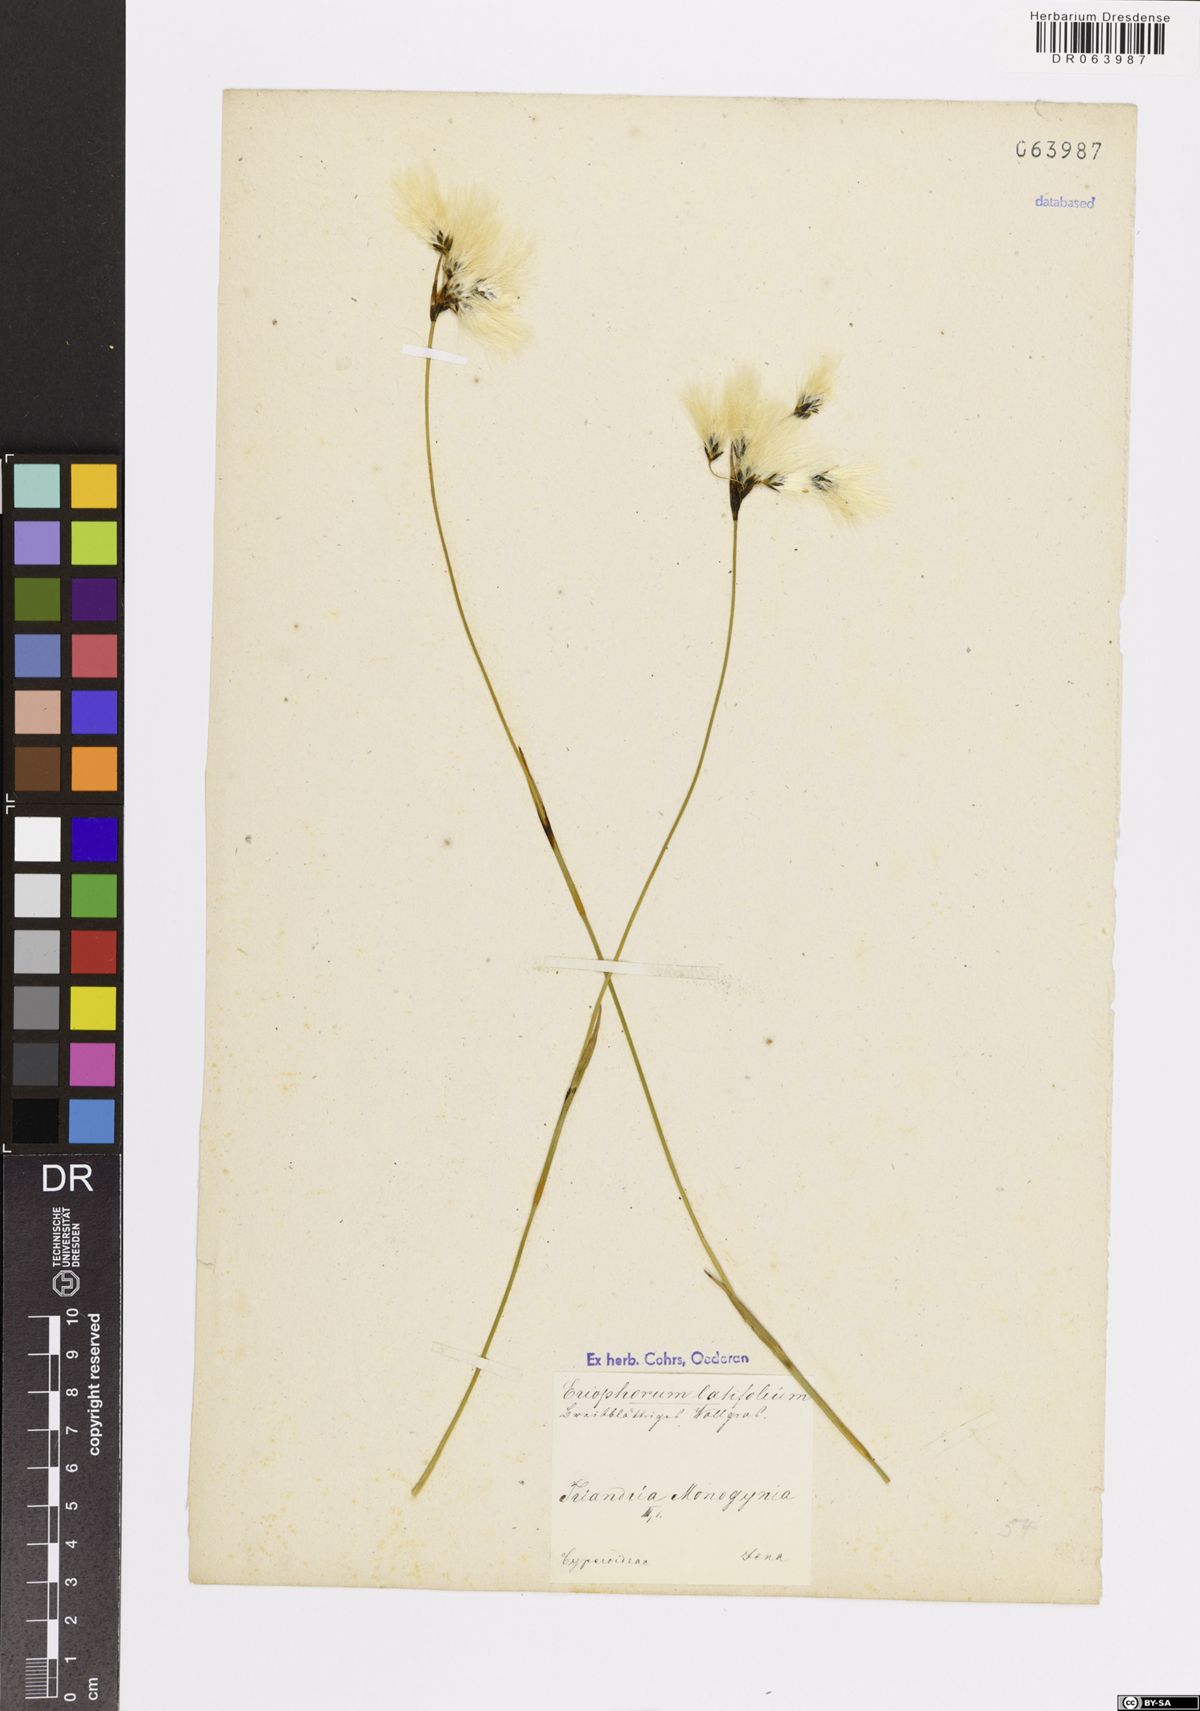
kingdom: Plantae
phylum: Tracheophyta
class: Liliopsida
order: Poales
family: Cyperaceae
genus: Eriophorum
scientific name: Eriophorum latifolium
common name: Broad-leaved cottongrass
